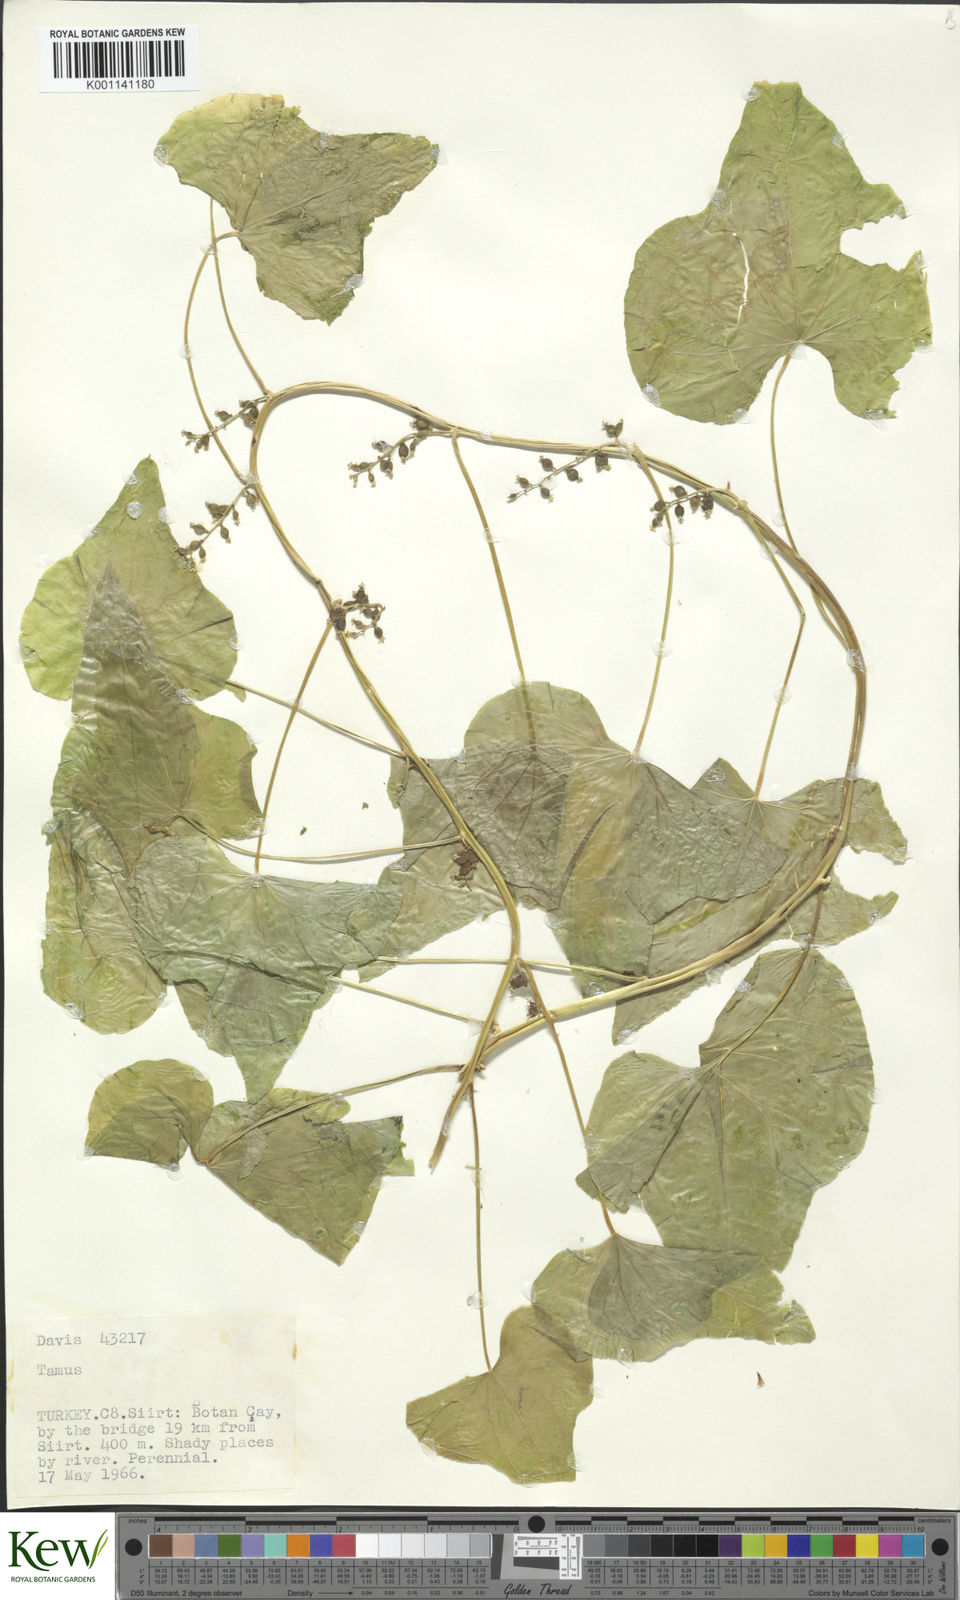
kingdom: Plantae
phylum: Tracheophyta
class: Liliopsida
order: Dioscoreales
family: Dioscoreaceae
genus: Dioscorea
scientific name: Dioscorea communis
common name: Black-bindweed
